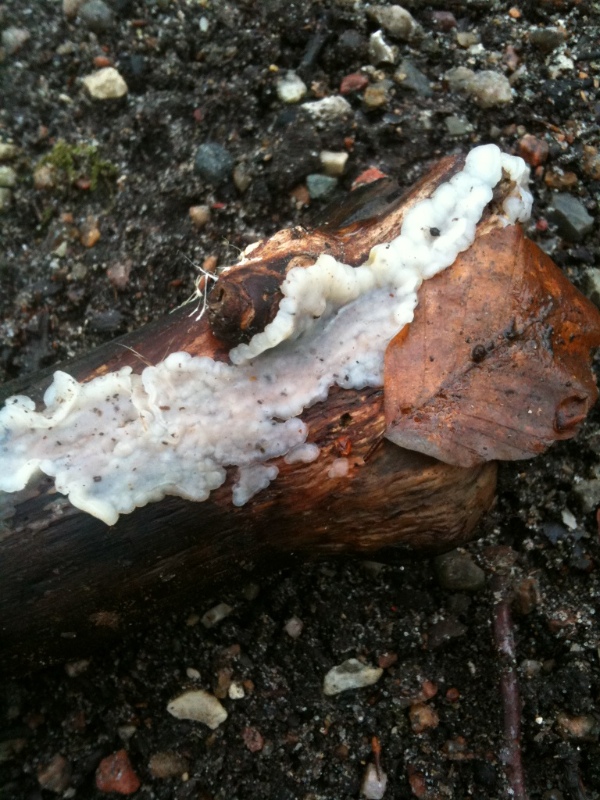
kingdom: Fungi
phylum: Basidiomycota
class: Agaricomycetes
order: Auriculariales
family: Auriculariaceae
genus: Exidia
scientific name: Exidia thuretiana
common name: hvidlig bævretop
